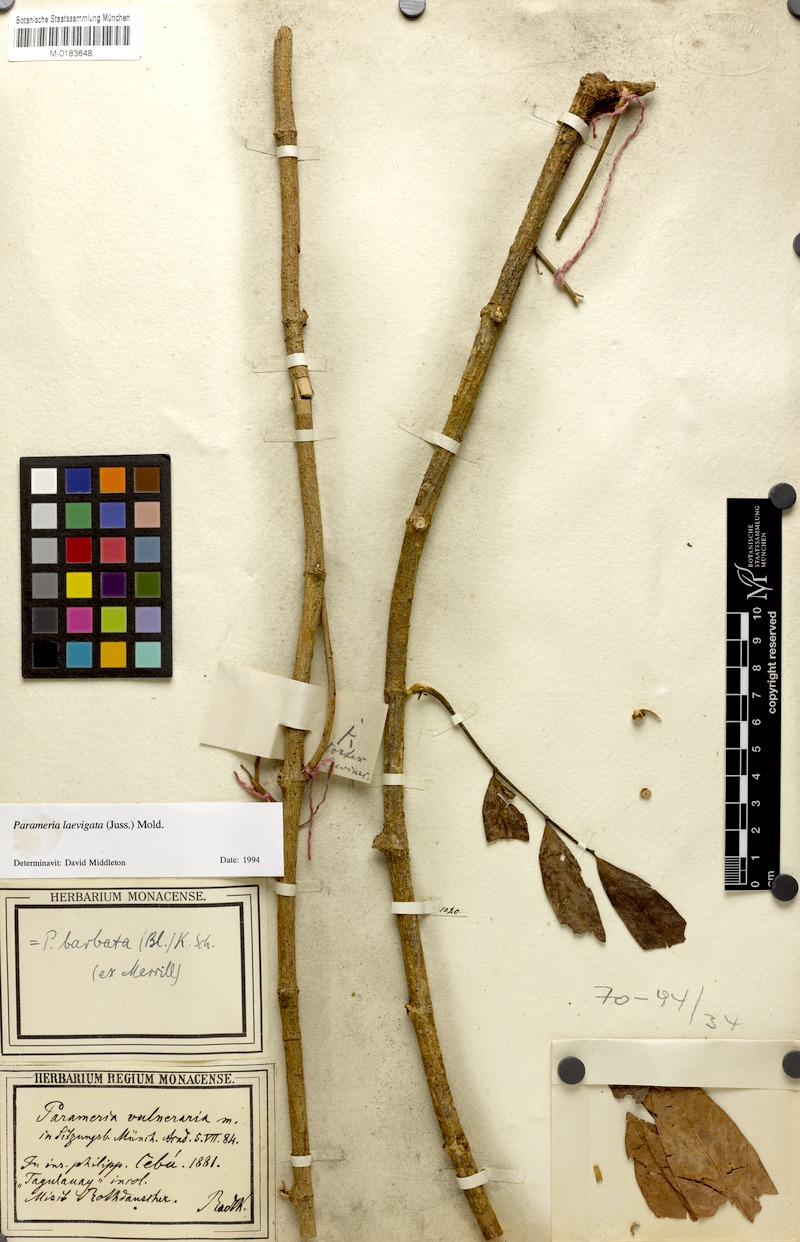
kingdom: Plantae
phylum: Tracheophyta
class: Magnoliopsida
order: Gentianales
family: Apocynaceae
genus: Urceola
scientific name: Urceola laevigata
